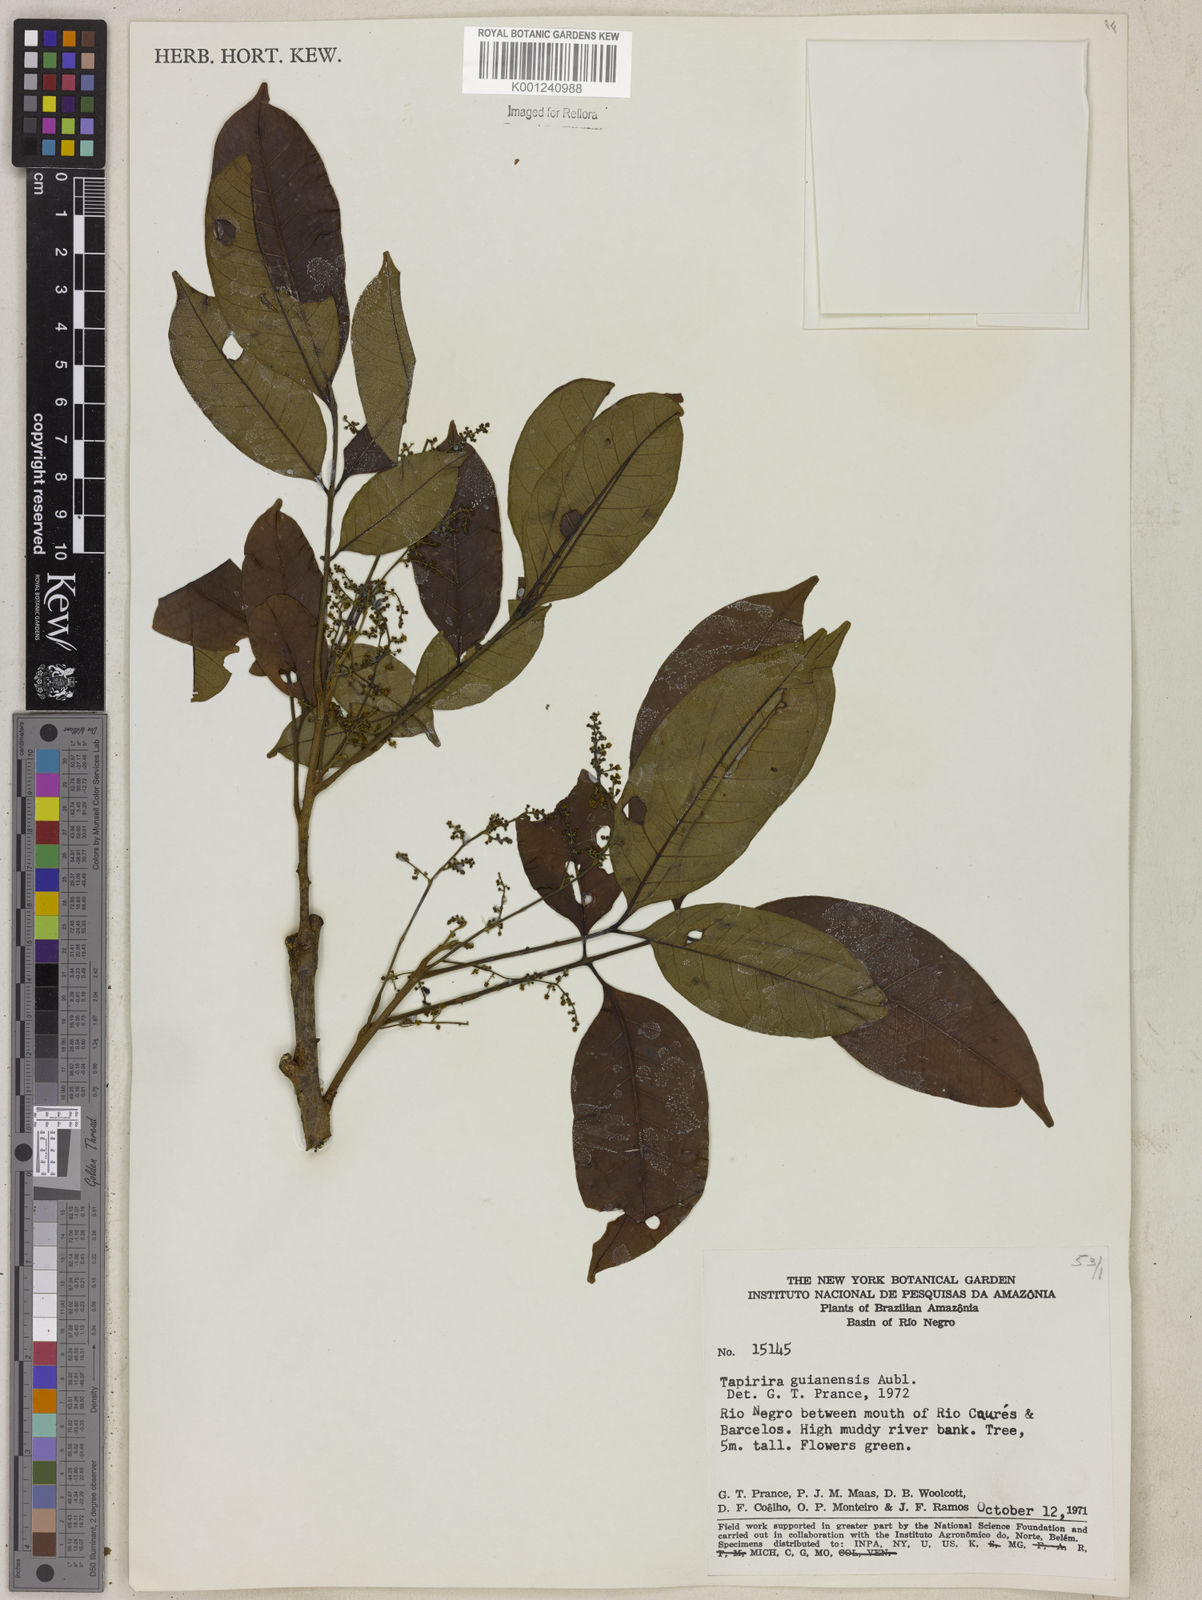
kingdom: Plantae
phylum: Tracheophyta
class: Magnoliopsida
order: Sapindales
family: Anacardiaceae
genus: Tapirira
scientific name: Tapirira guianensis
